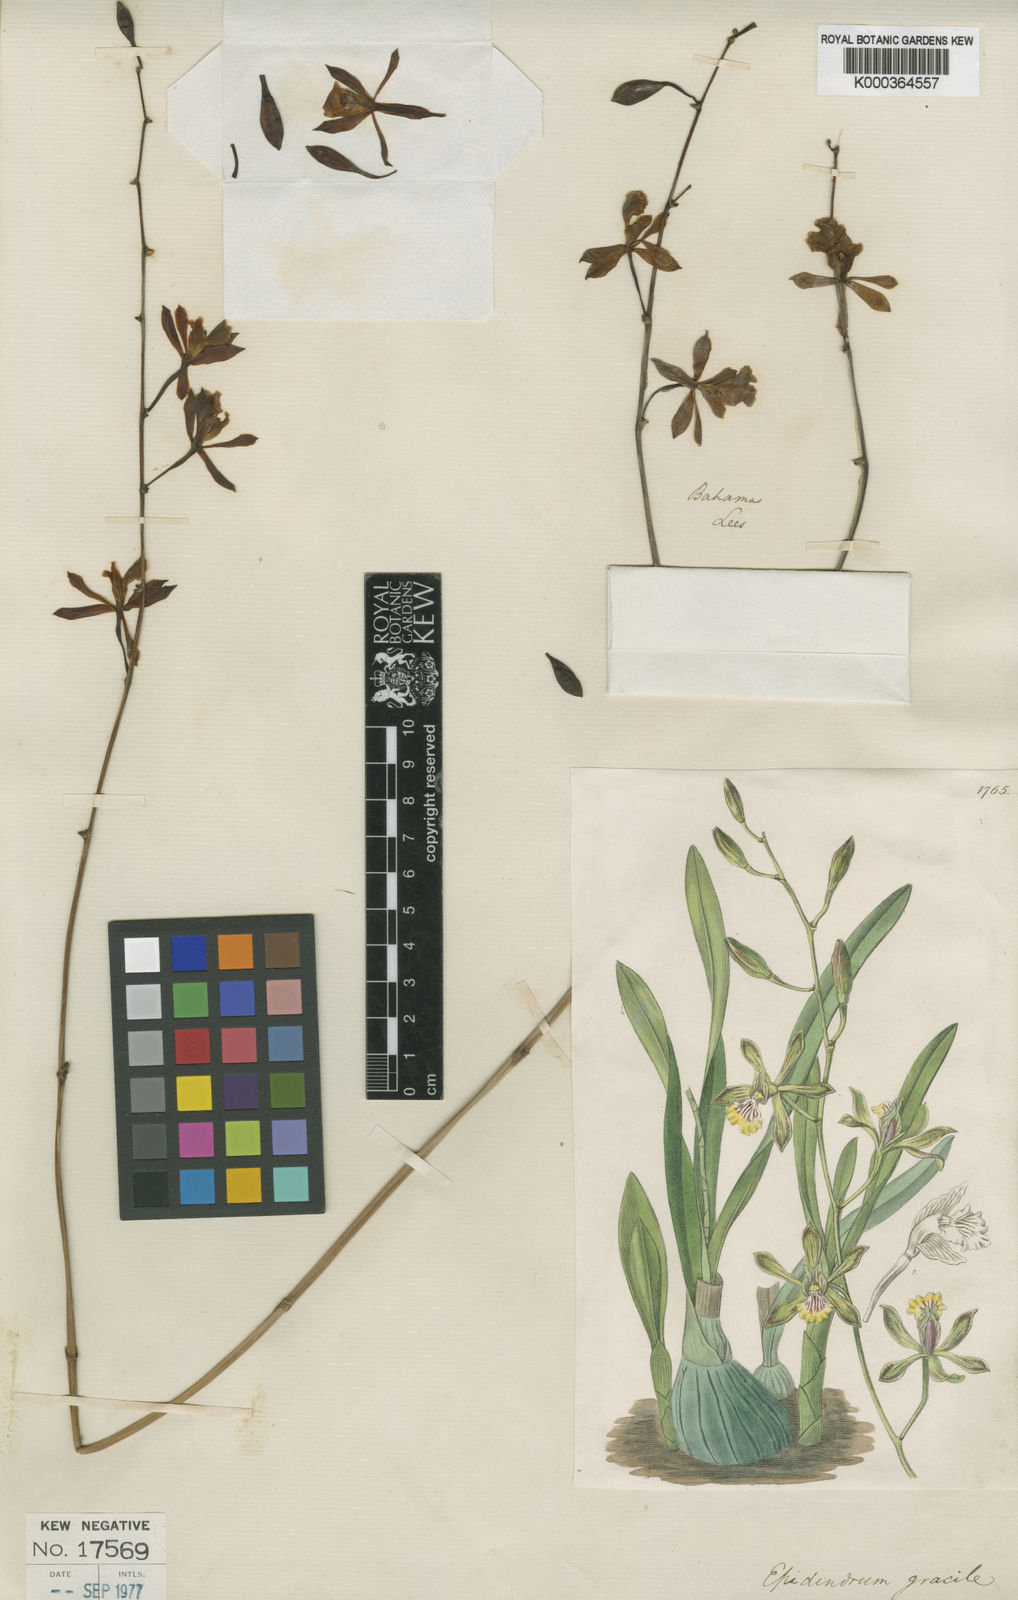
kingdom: Plantae
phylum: Tracheophyta
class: Liliopsida
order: Asparagales
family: Orchidaceae
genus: Encyclia
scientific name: Encyclia gracilis
